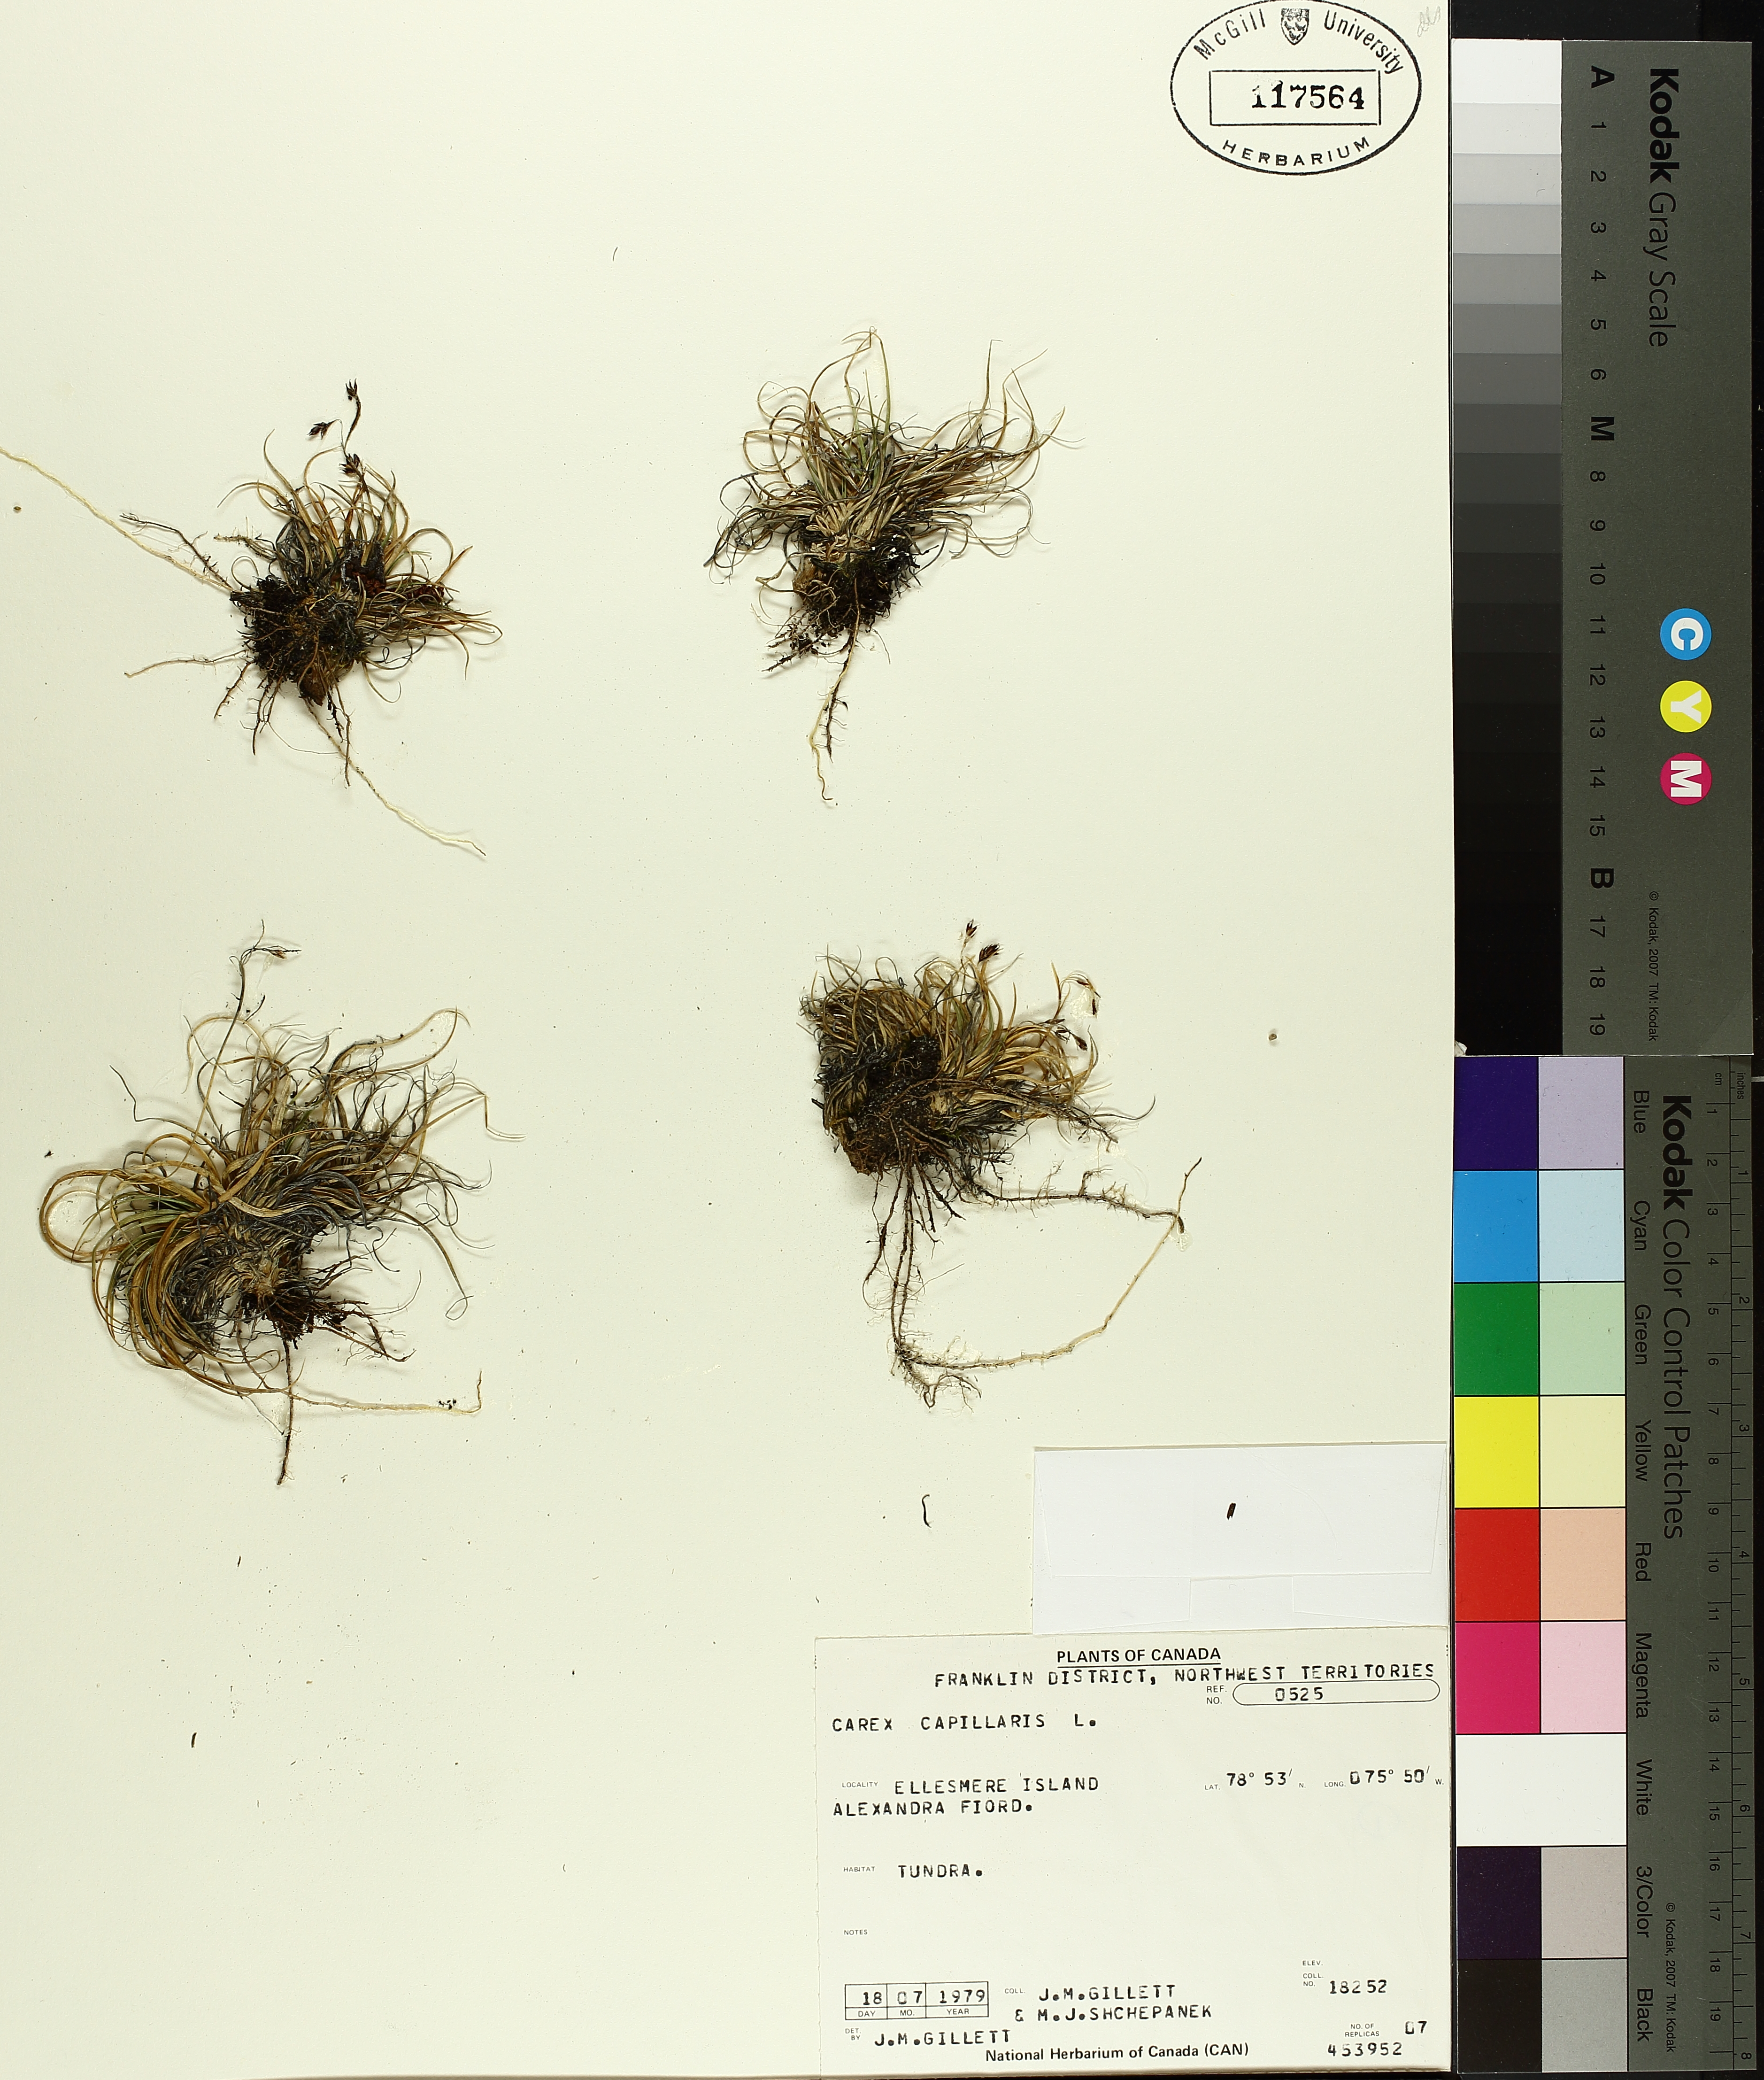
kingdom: Plantae
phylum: Tracheophyta
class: Liliopsida
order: Poales
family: Cyperaceae
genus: Carex
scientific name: Carex capillaris
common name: Hair sedge
